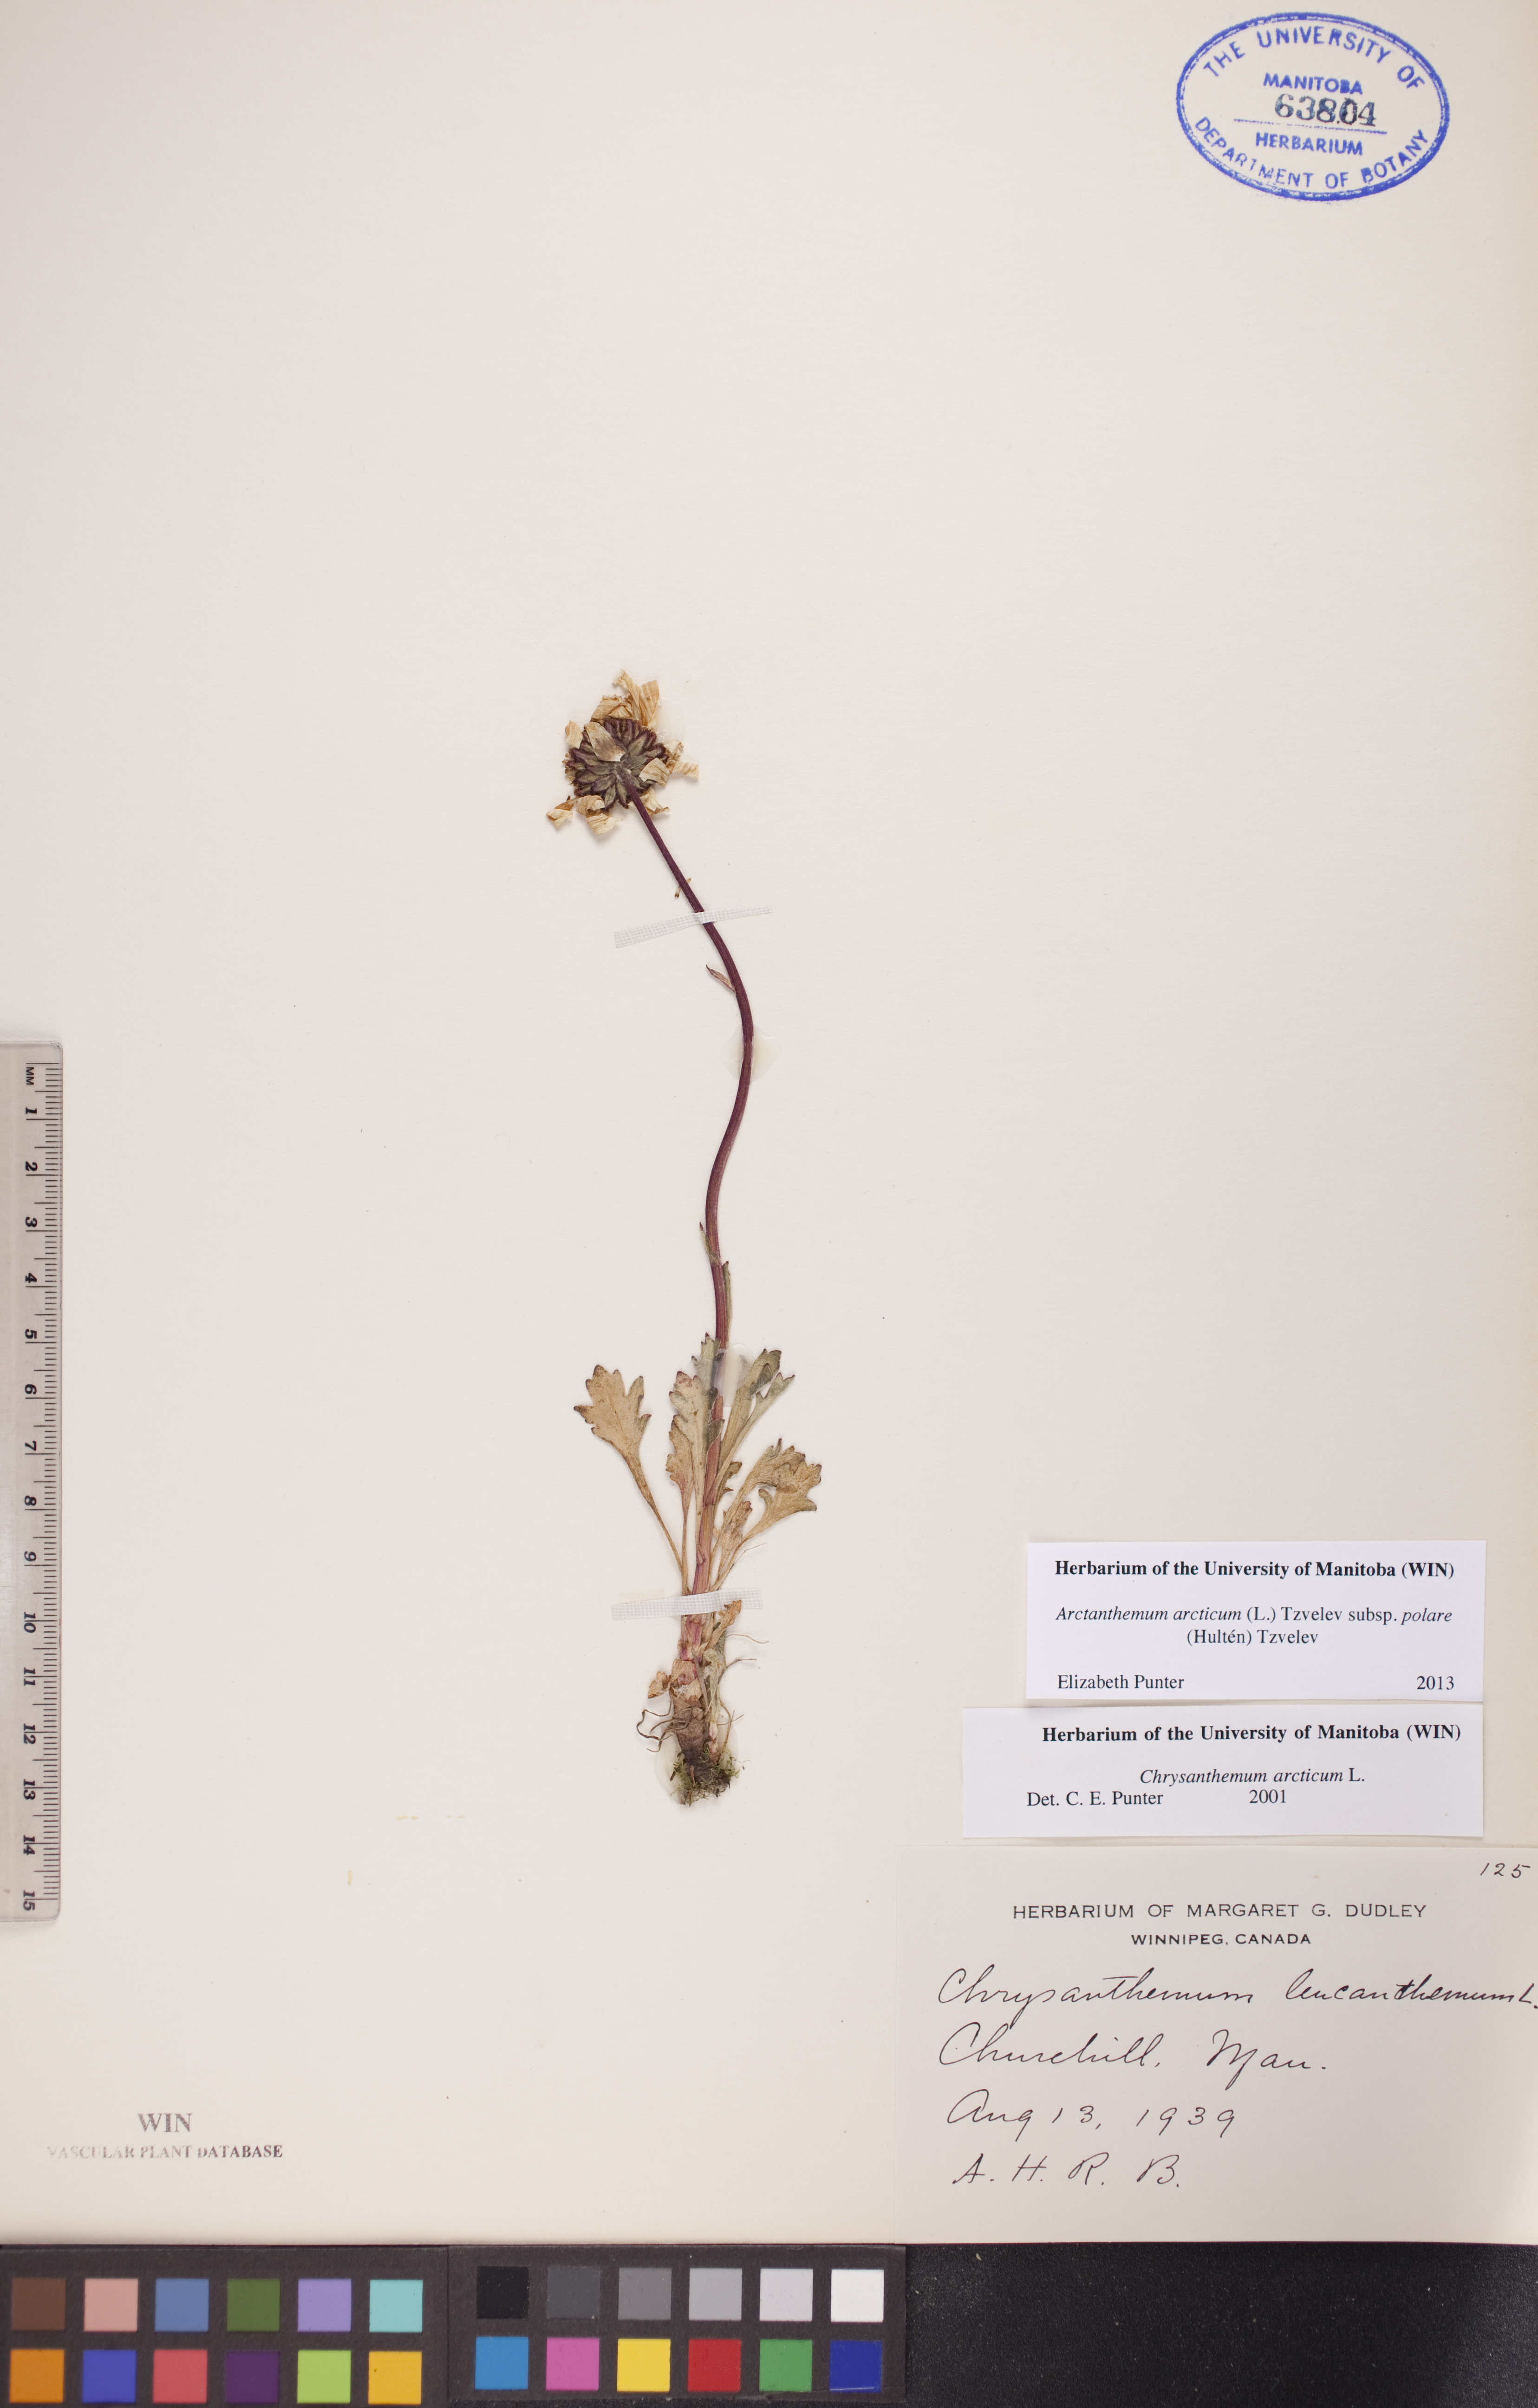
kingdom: Plantae
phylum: Tracheophyta
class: Magnoliopsida
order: Asterales
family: Asteraceae
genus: Arctanthemum
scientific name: Arctanthemum arcticum
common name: Arctic daisy
